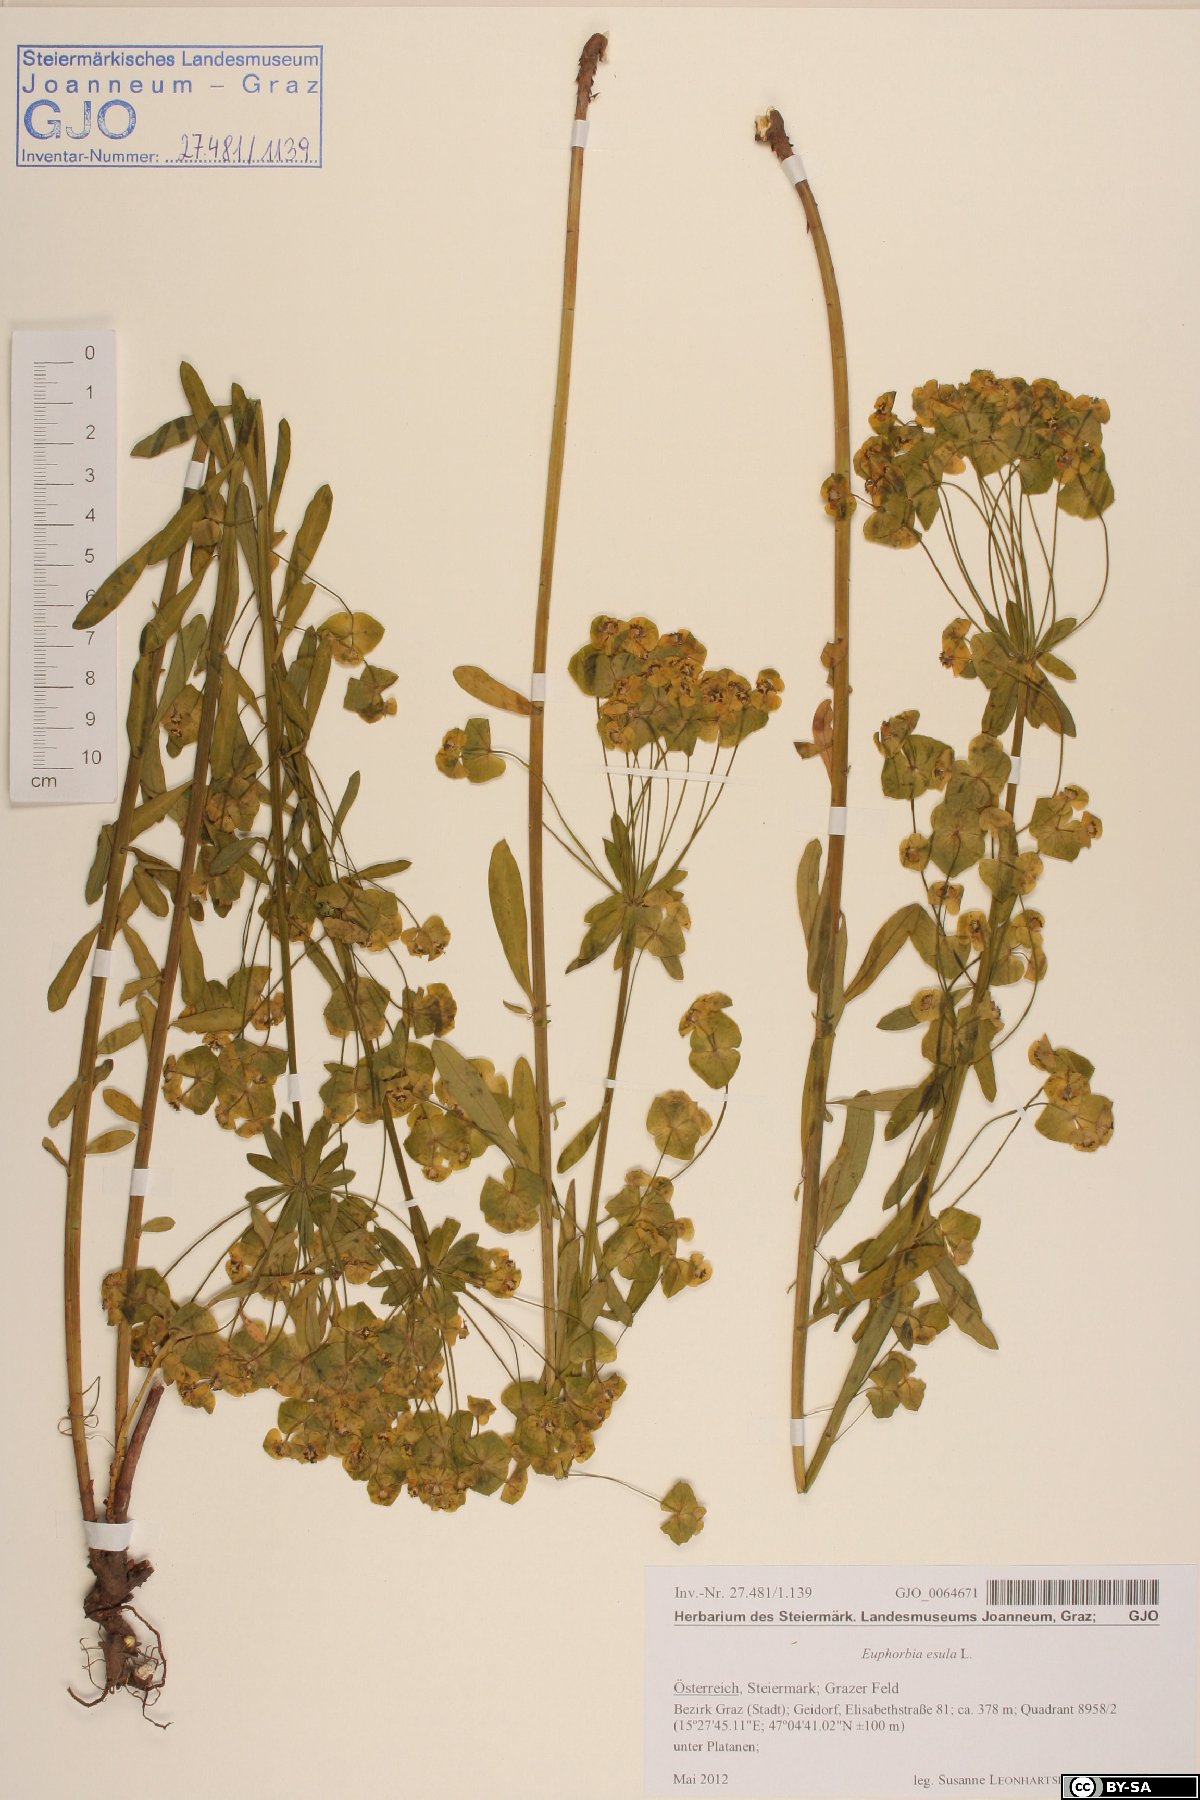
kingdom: Plantae
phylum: Tracheophyta
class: Magnoliopsida
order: Malpighiales
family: Euphorbiaceae
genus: Euphorbia
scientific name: Euphorbia esula
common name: Leafy spurge
